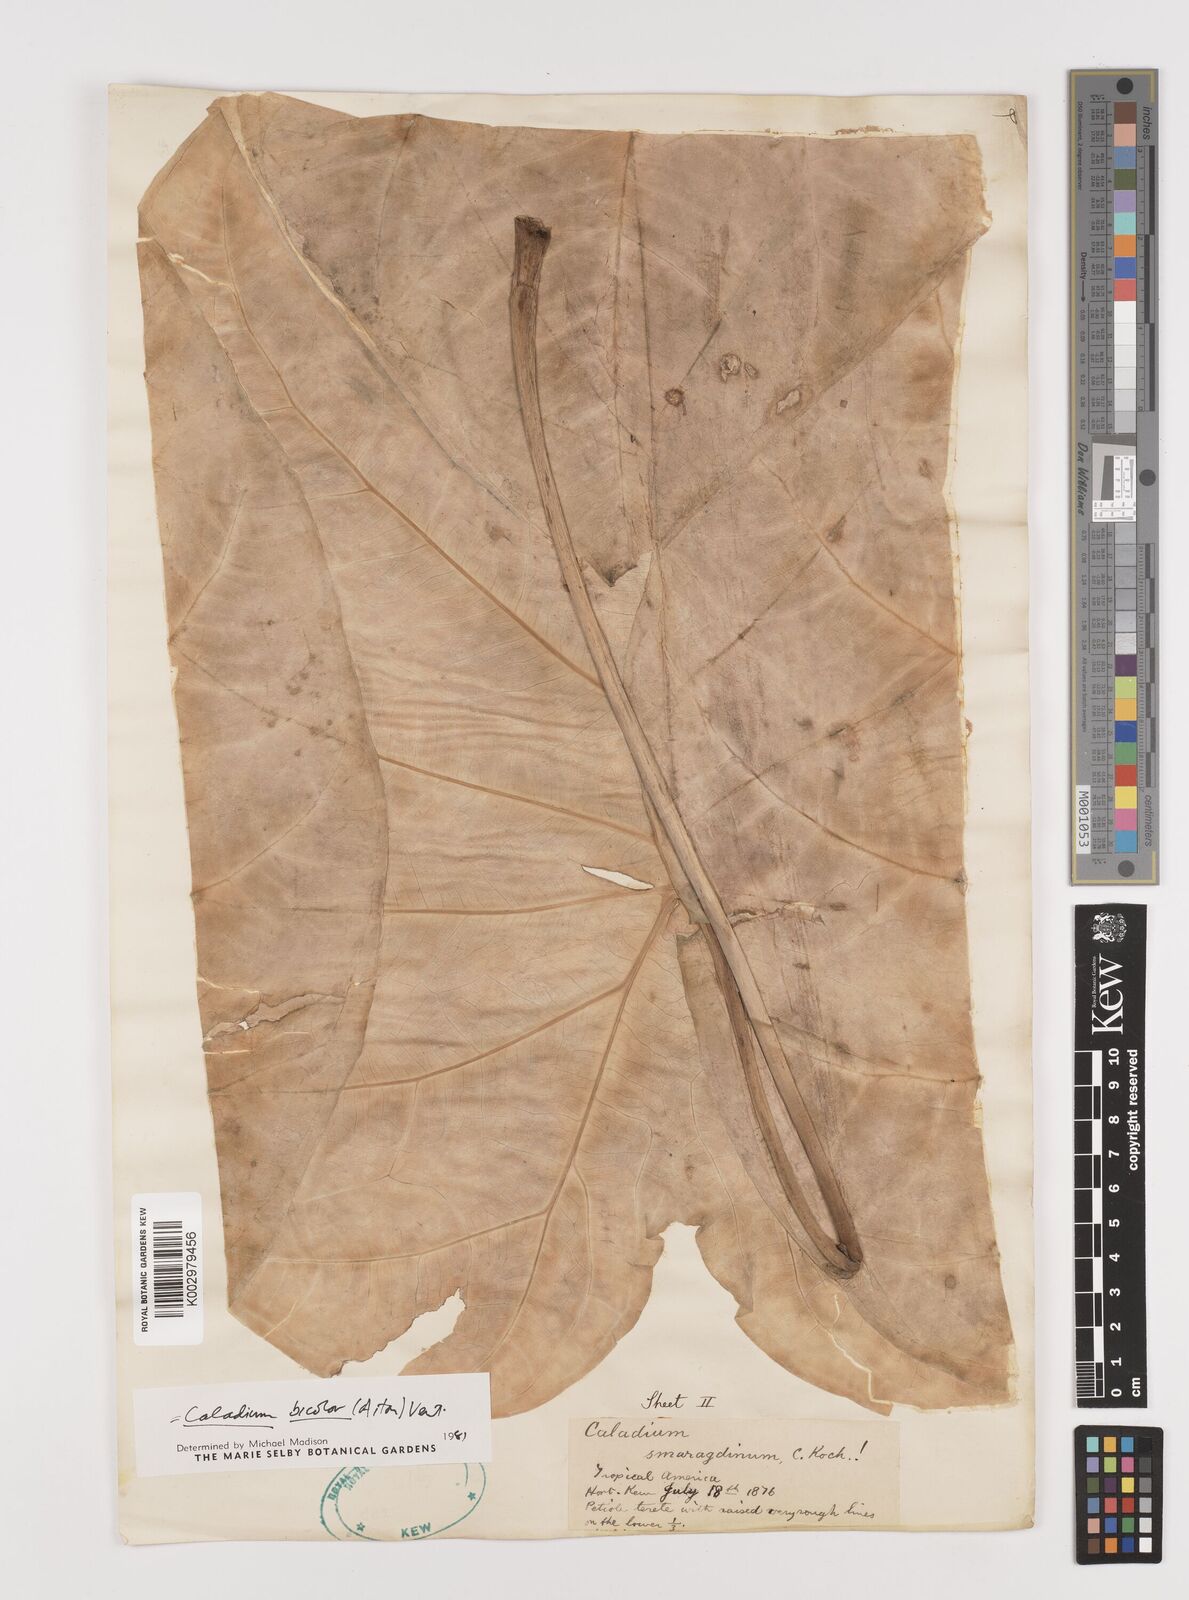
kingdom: Plantae
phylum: Tracheophyta
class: Liliopsida
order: Alismatales
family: Araceae
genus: Caladium
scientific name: Caladium bicolor
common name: Artist's pallet
